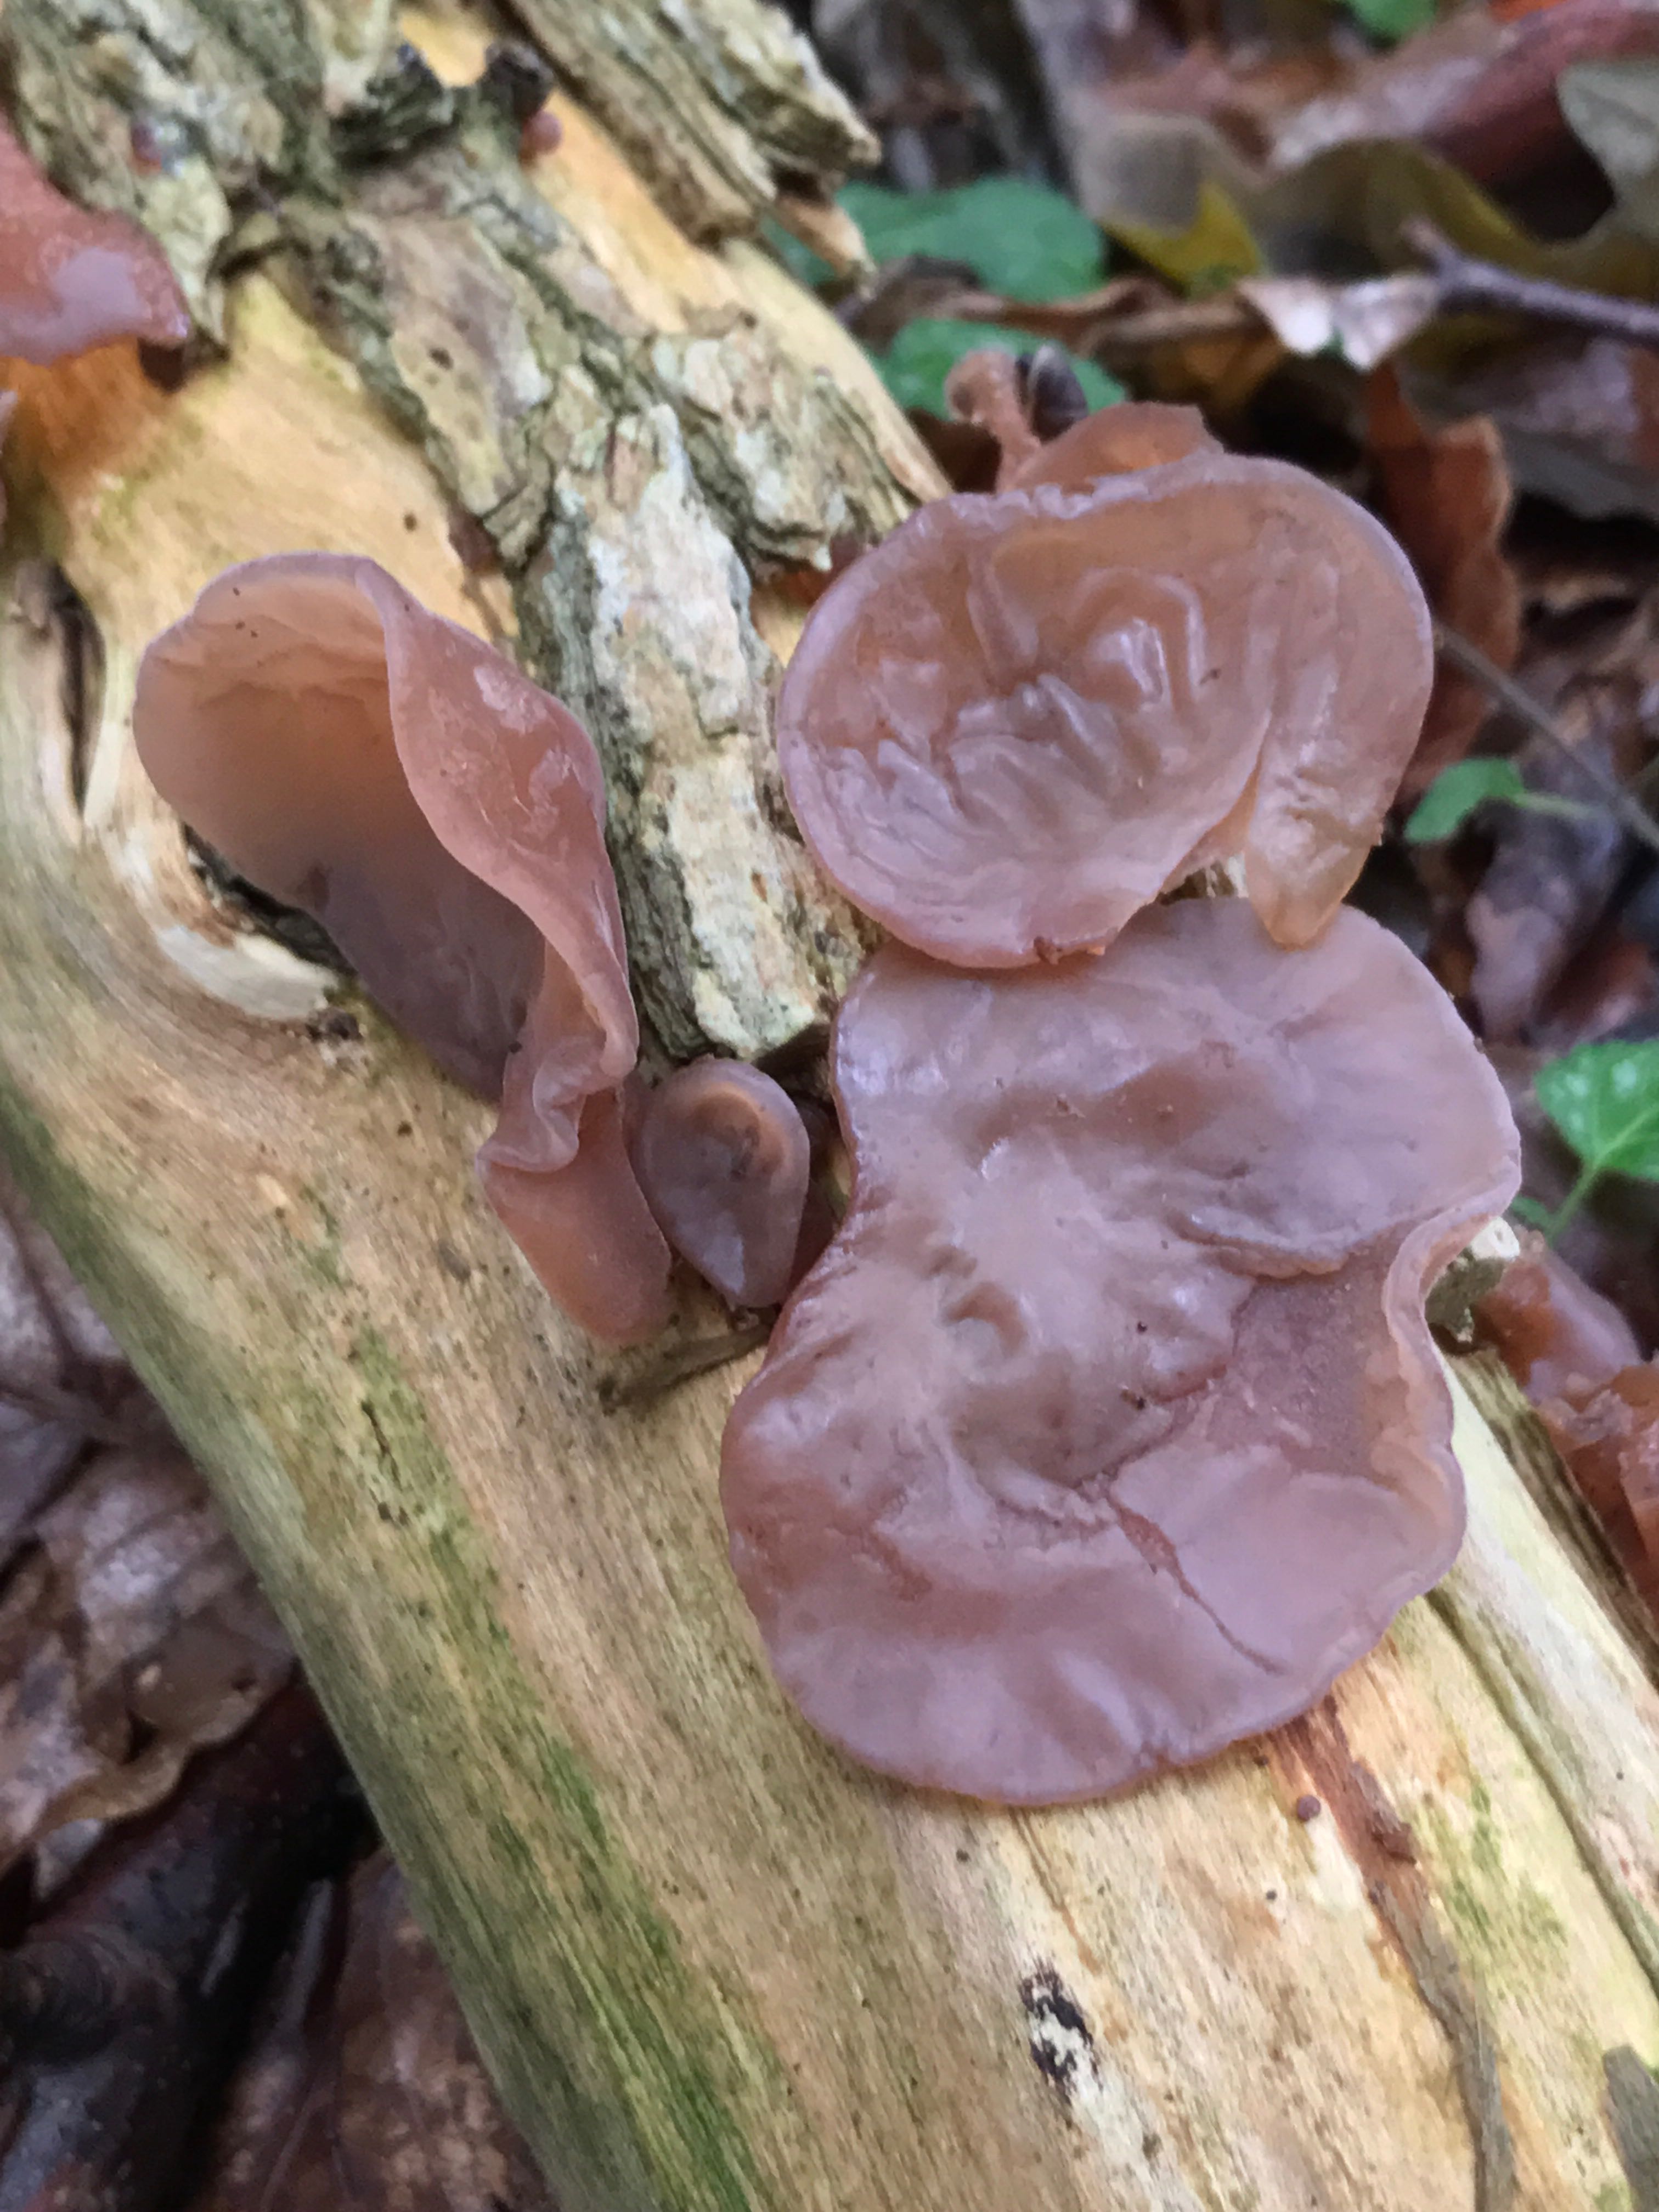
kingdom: Fungi
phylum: Basidiomycota
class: Agaricomycetes
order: Auriculariales
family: Auriculariaceae
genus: Auricularia
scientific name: Auricularia auricula-judae
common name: almindelig judasøre
